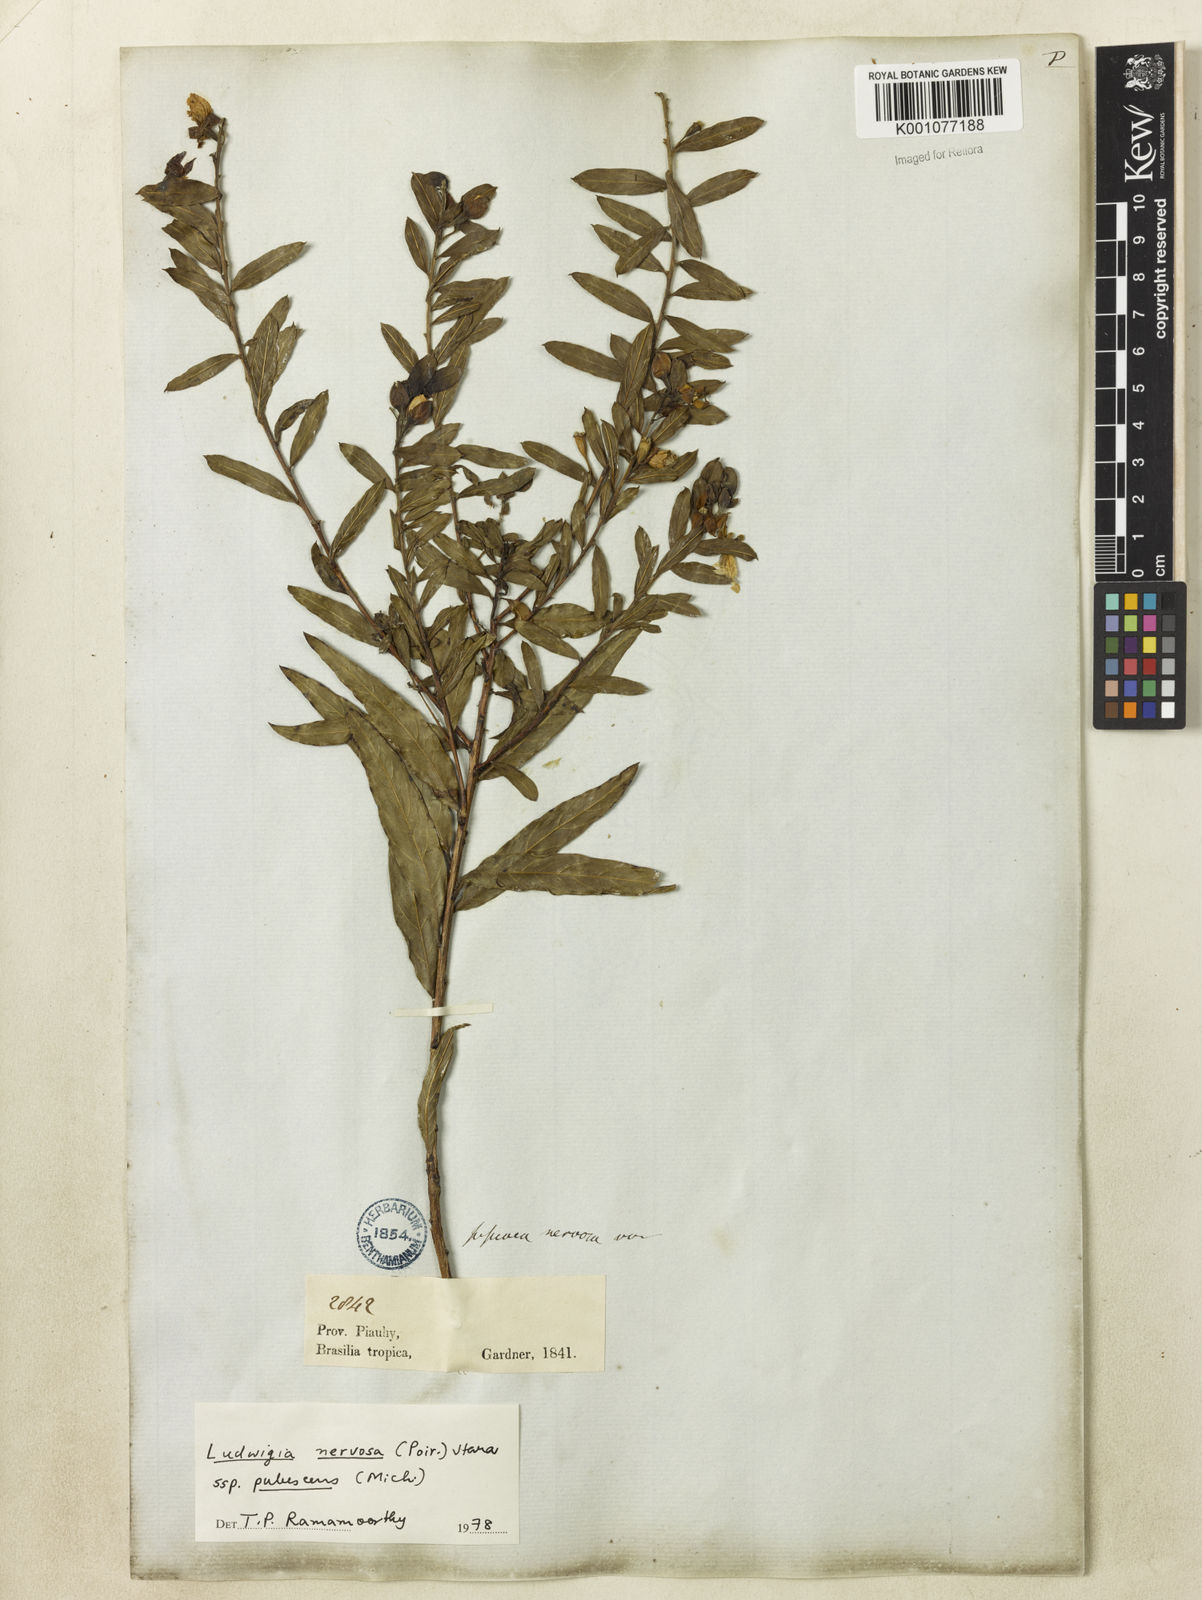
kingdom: Plantae
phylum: Tracheophyta
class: Magnoliopsida
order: Myrtales
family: Onagraceae
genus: Ludwigia
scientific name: Ludwigia nervosa
